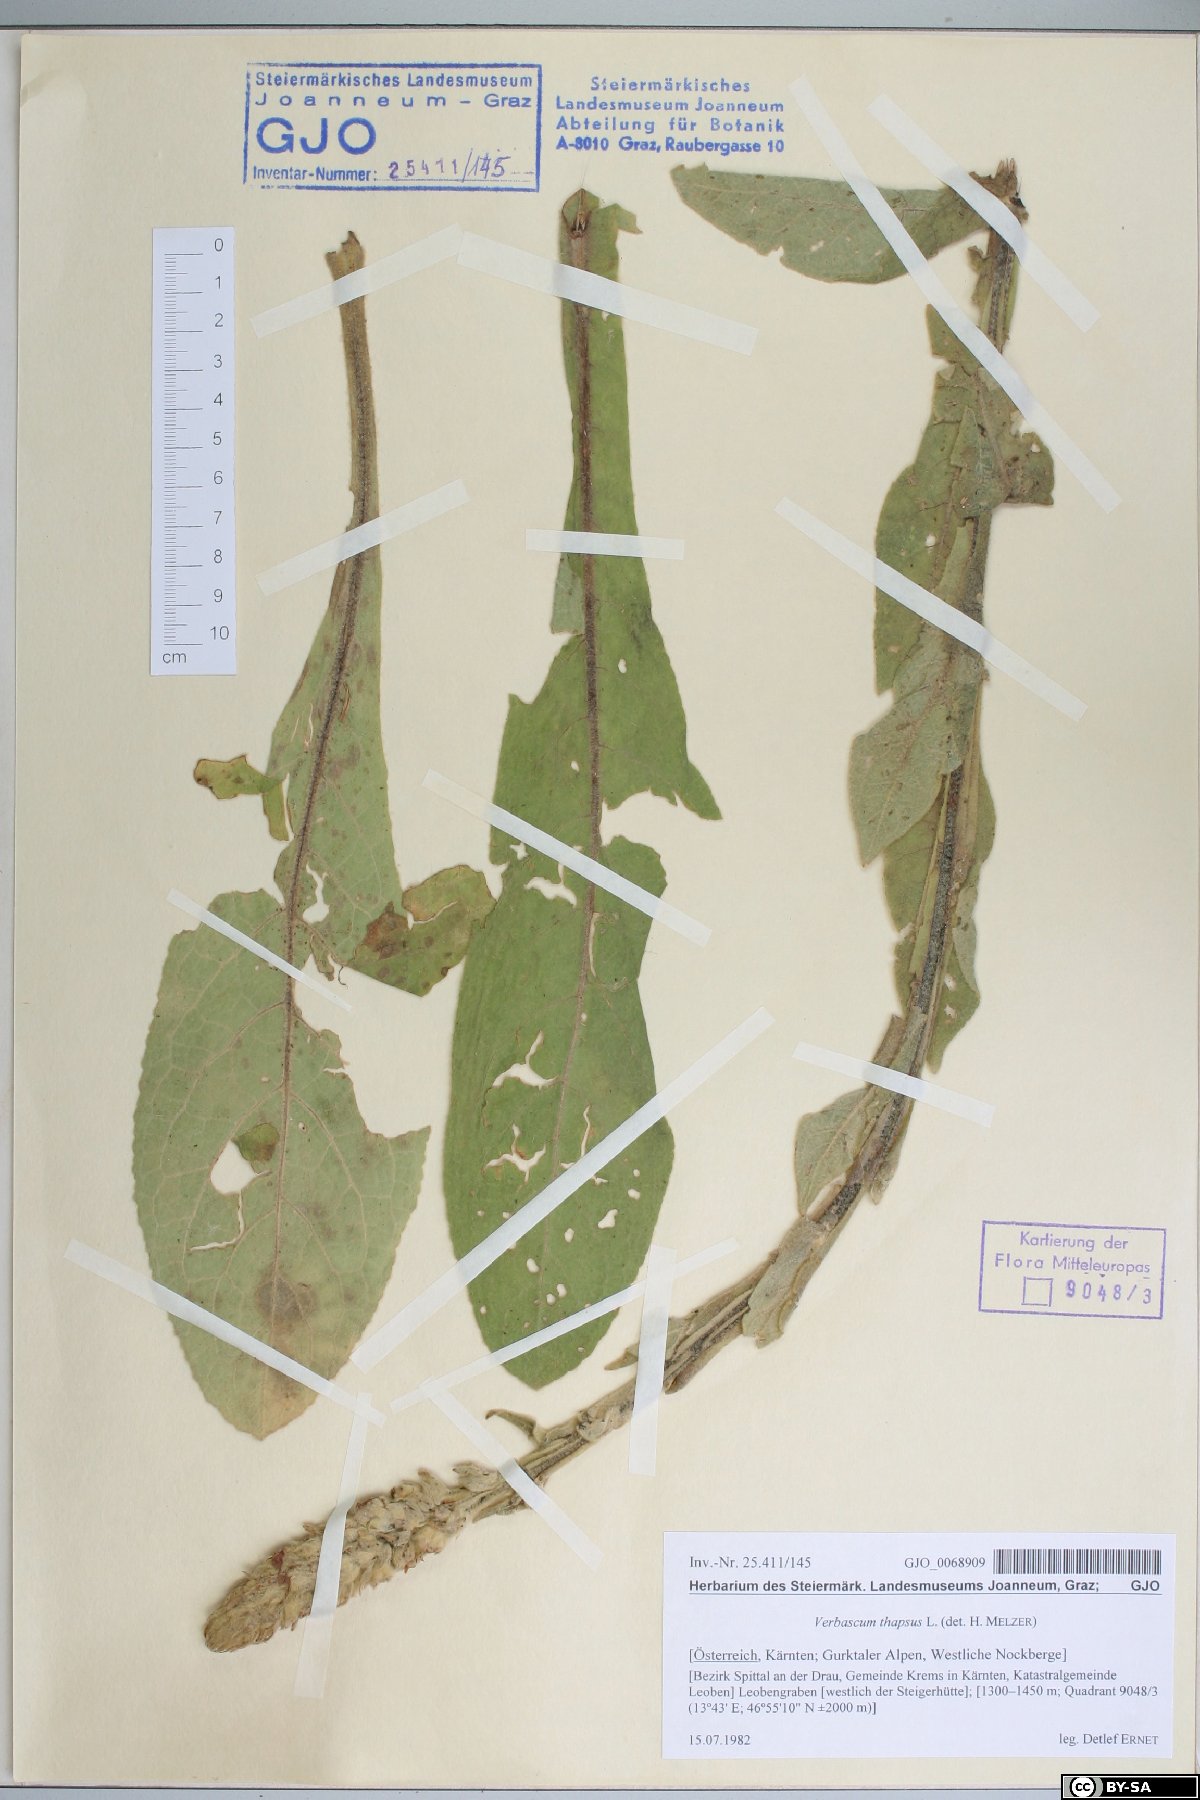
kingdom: Plantae
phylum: Tracheophyta
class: Magnoliopsida
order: Lamiales
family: Scrophulariaceae
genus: Verbascum
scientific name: Verbascum thapsus
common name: Common mullein
